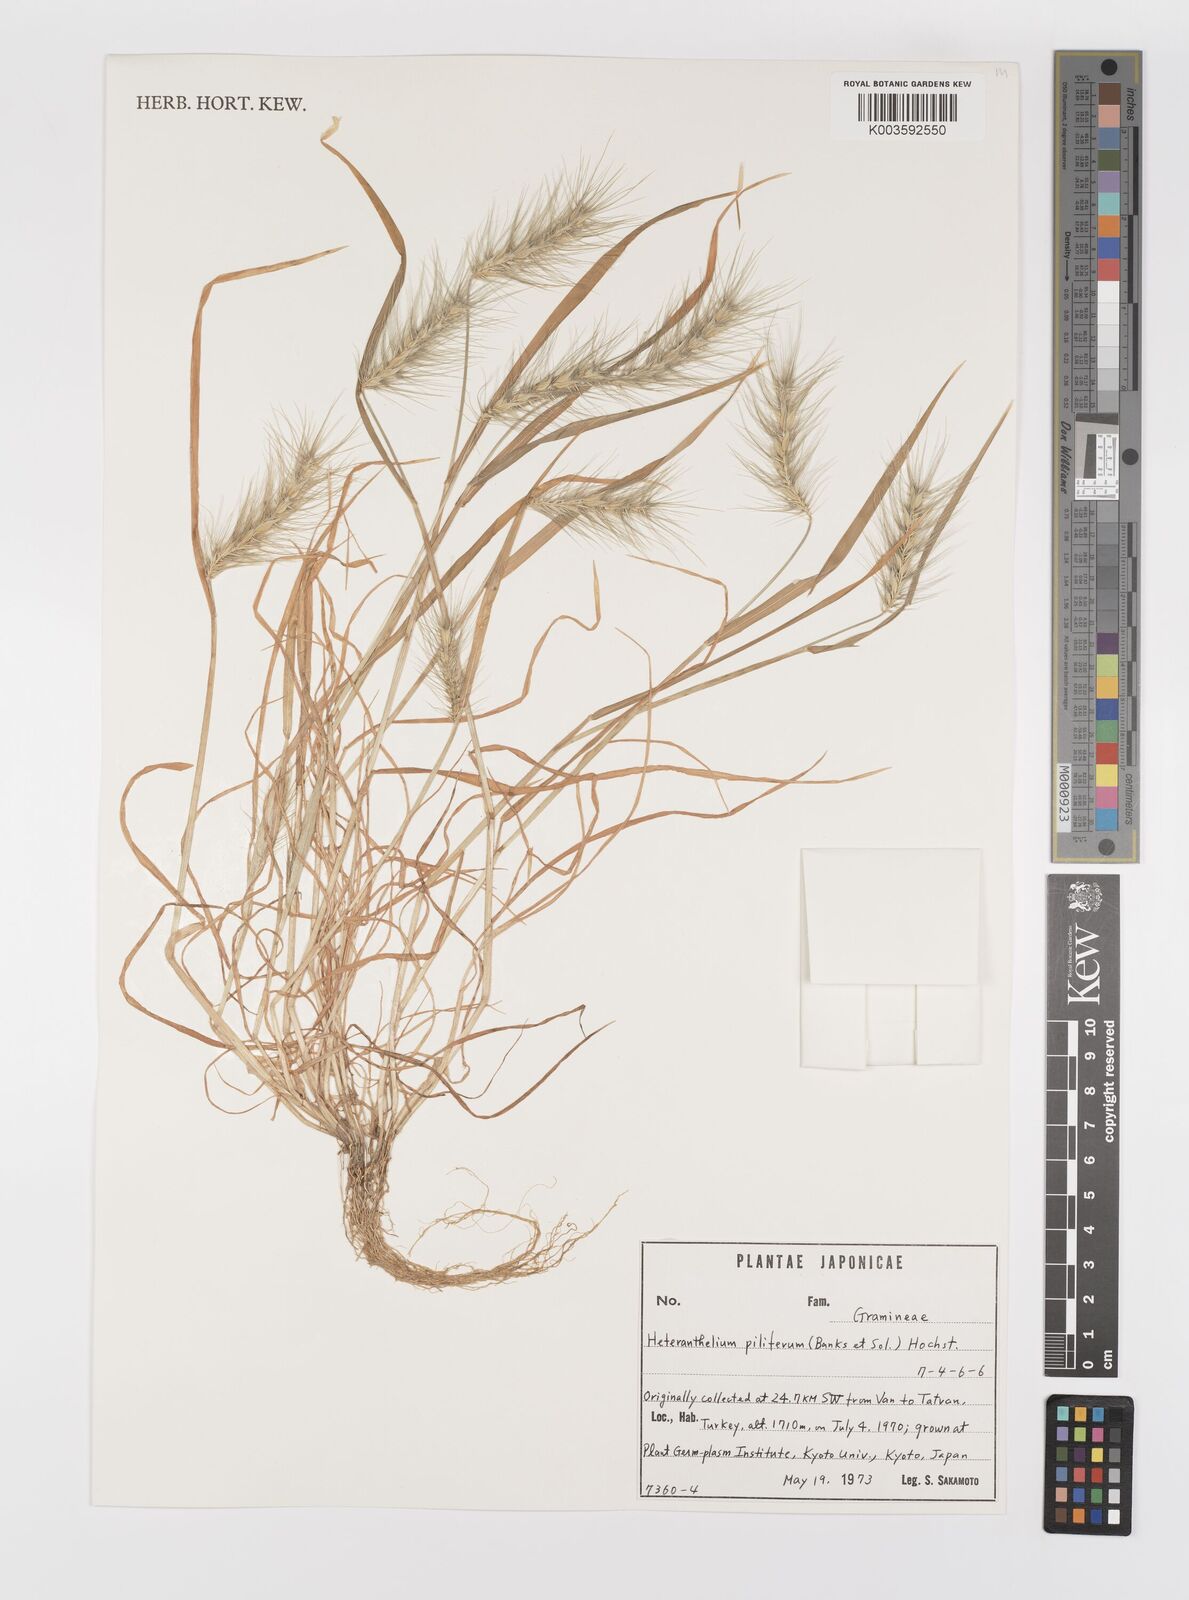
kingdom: Plantae
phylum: Tracheophyta
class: Liliopsida
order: Poales
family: Poaceae
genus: Heteranthelium
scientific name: Heteranthelium piliferum
